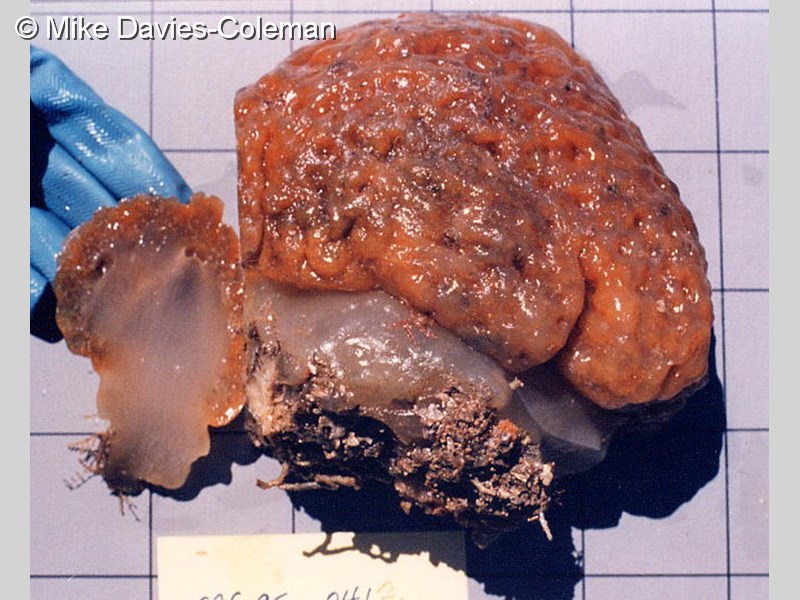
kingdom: Animalia
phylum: Chordata
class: Ascidiacea
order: Aplousobranchia
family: Holozoidae
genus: Hypodistoma
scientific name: Hypodistoma
